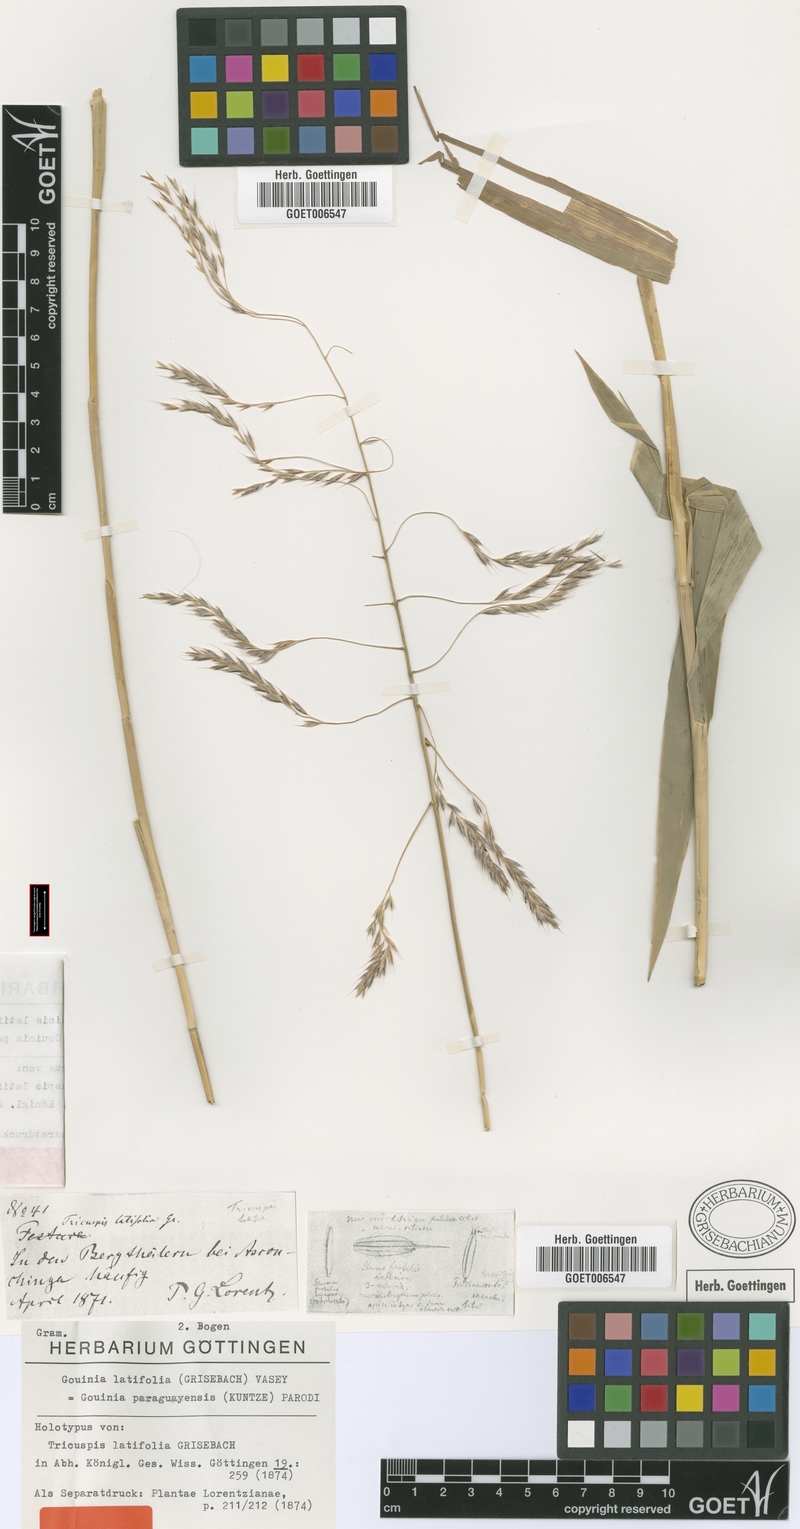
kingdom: Plantae
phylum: Tracheophyta
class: Liliopsida
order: Poales
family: Poaceae
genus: Gouinia
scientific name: Gouinia latifolia
